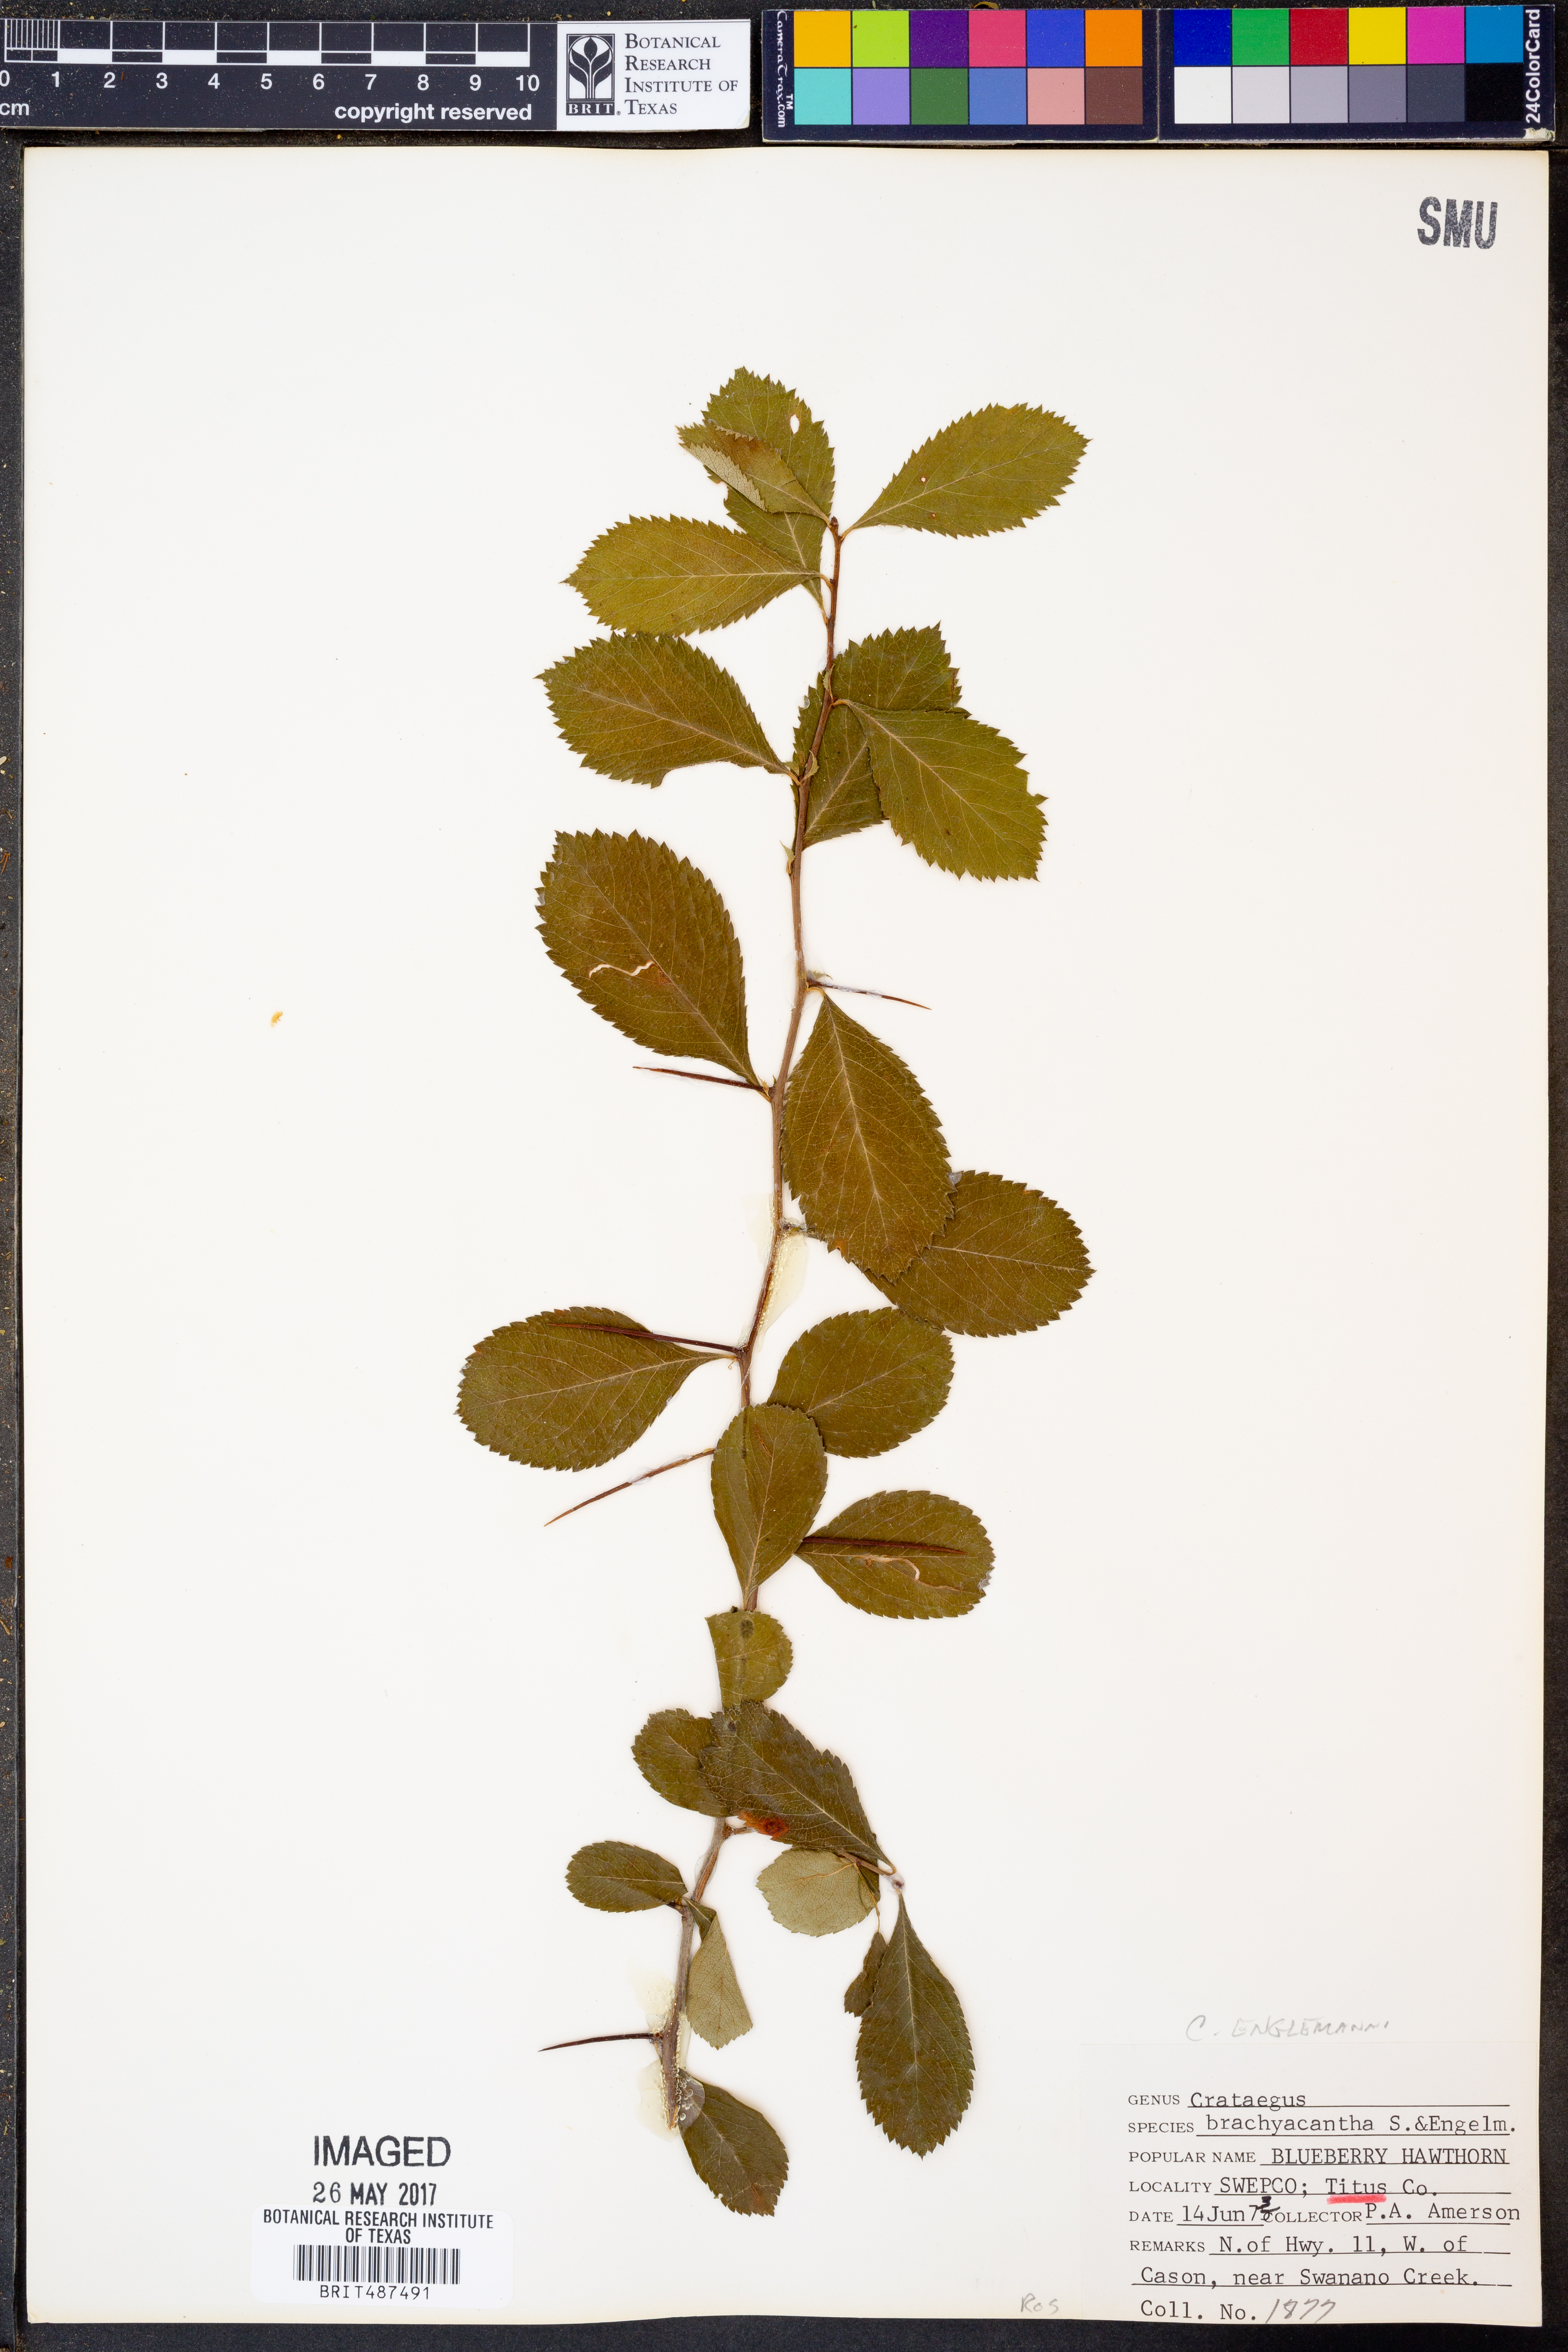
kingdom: Plantae
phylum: Tracheophyta
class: Magnoliopsida
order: Rosales
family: Rosaceae
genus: Crataegus
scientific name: Crataegus brachyacantha
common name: Blueberry-hawthorn
